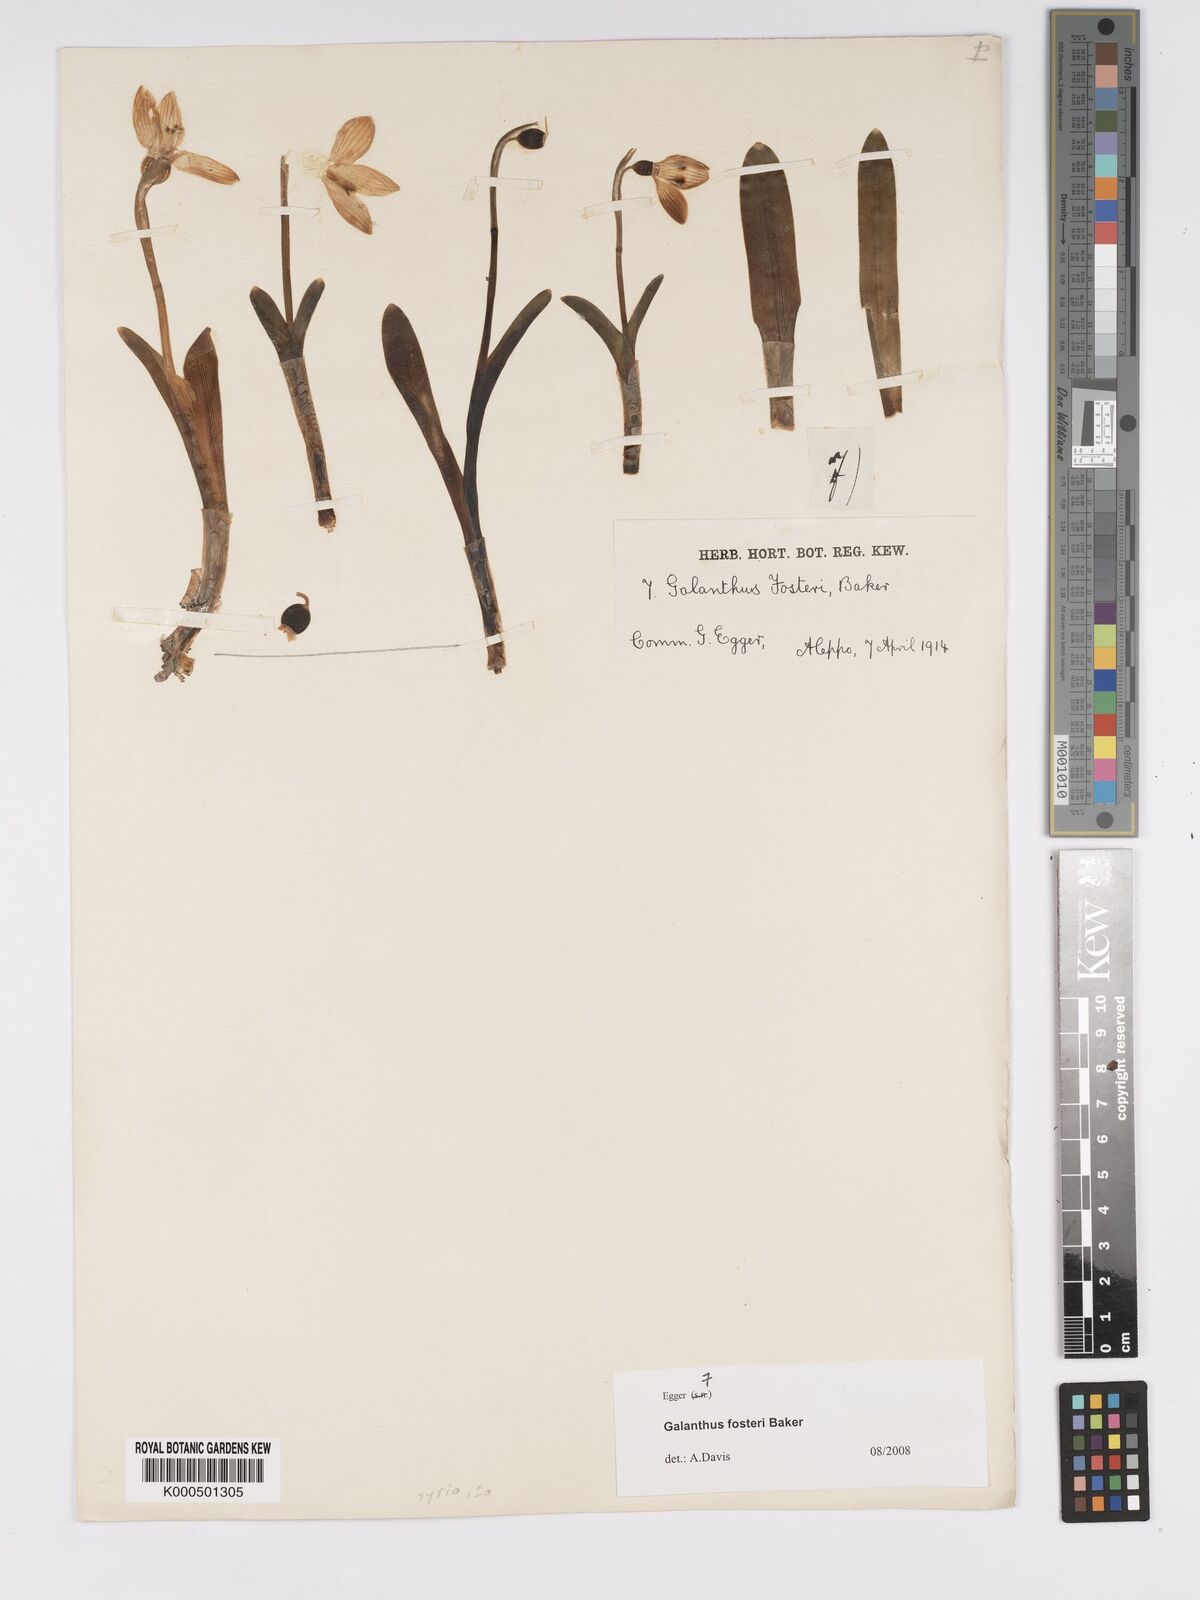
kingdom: Plantae
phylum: Tracheophyta
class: Liliopsida
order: Asparagales
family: Amaryllidaceae
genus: Galanthus
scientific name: Galanthus fosteri
